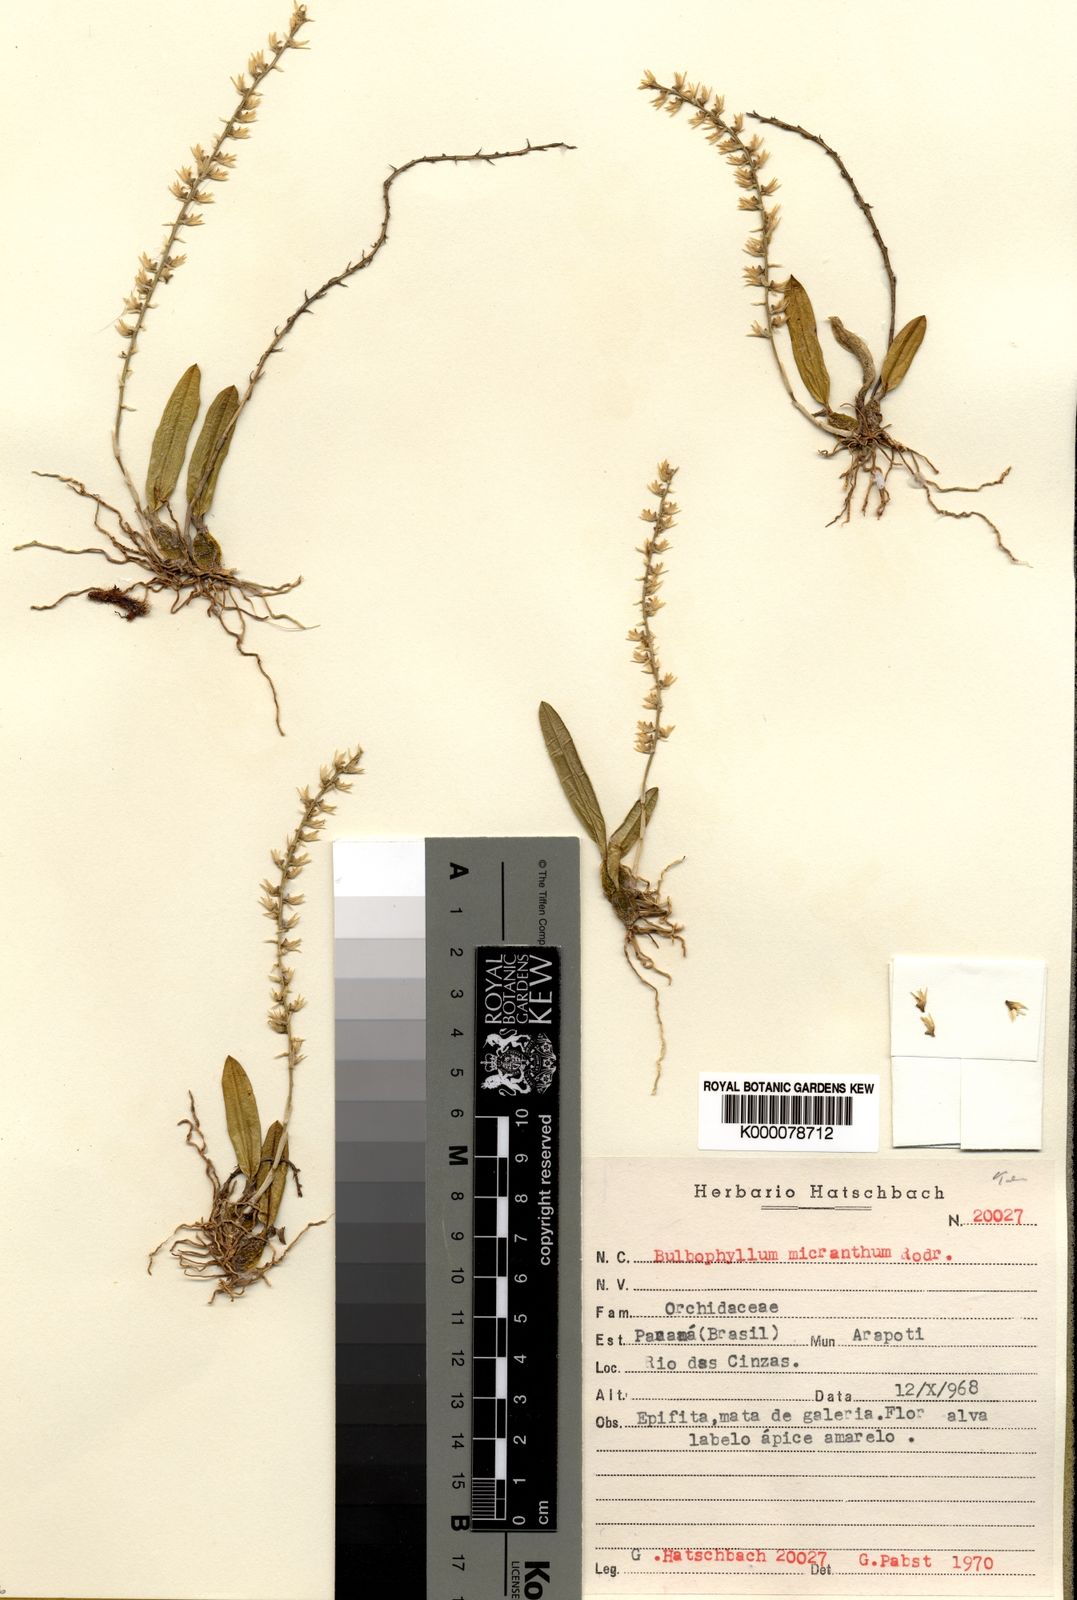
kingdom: Plantae
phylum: Tracheophyta
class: Liliopsida
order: Asparagales
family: Orchidaceae
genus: Bulbophyllum
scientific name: Bulbophyllum micranthum
